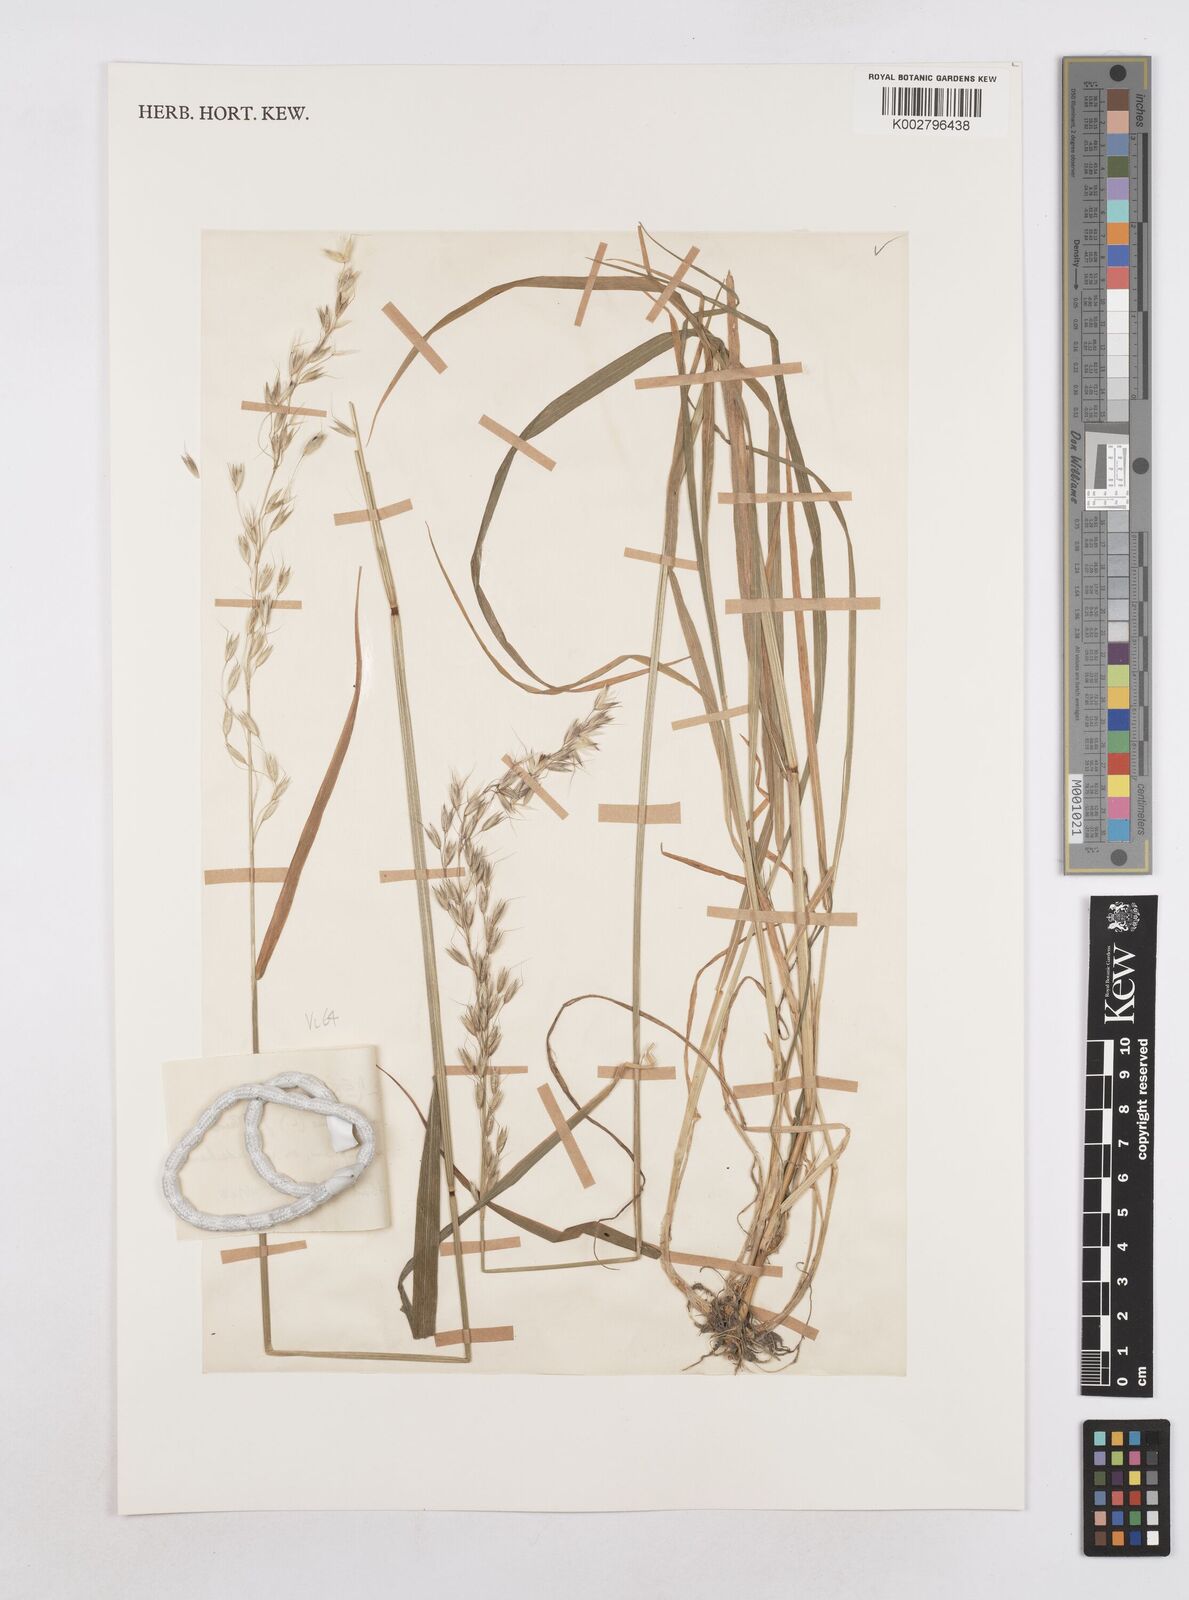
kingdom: Plantae
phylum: Tracheophyta
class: Liliopsida
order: Poales
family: Poaceae
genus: Arrhenatherum
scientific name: Arrhenatherum elatius
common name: Tall oatgrass
